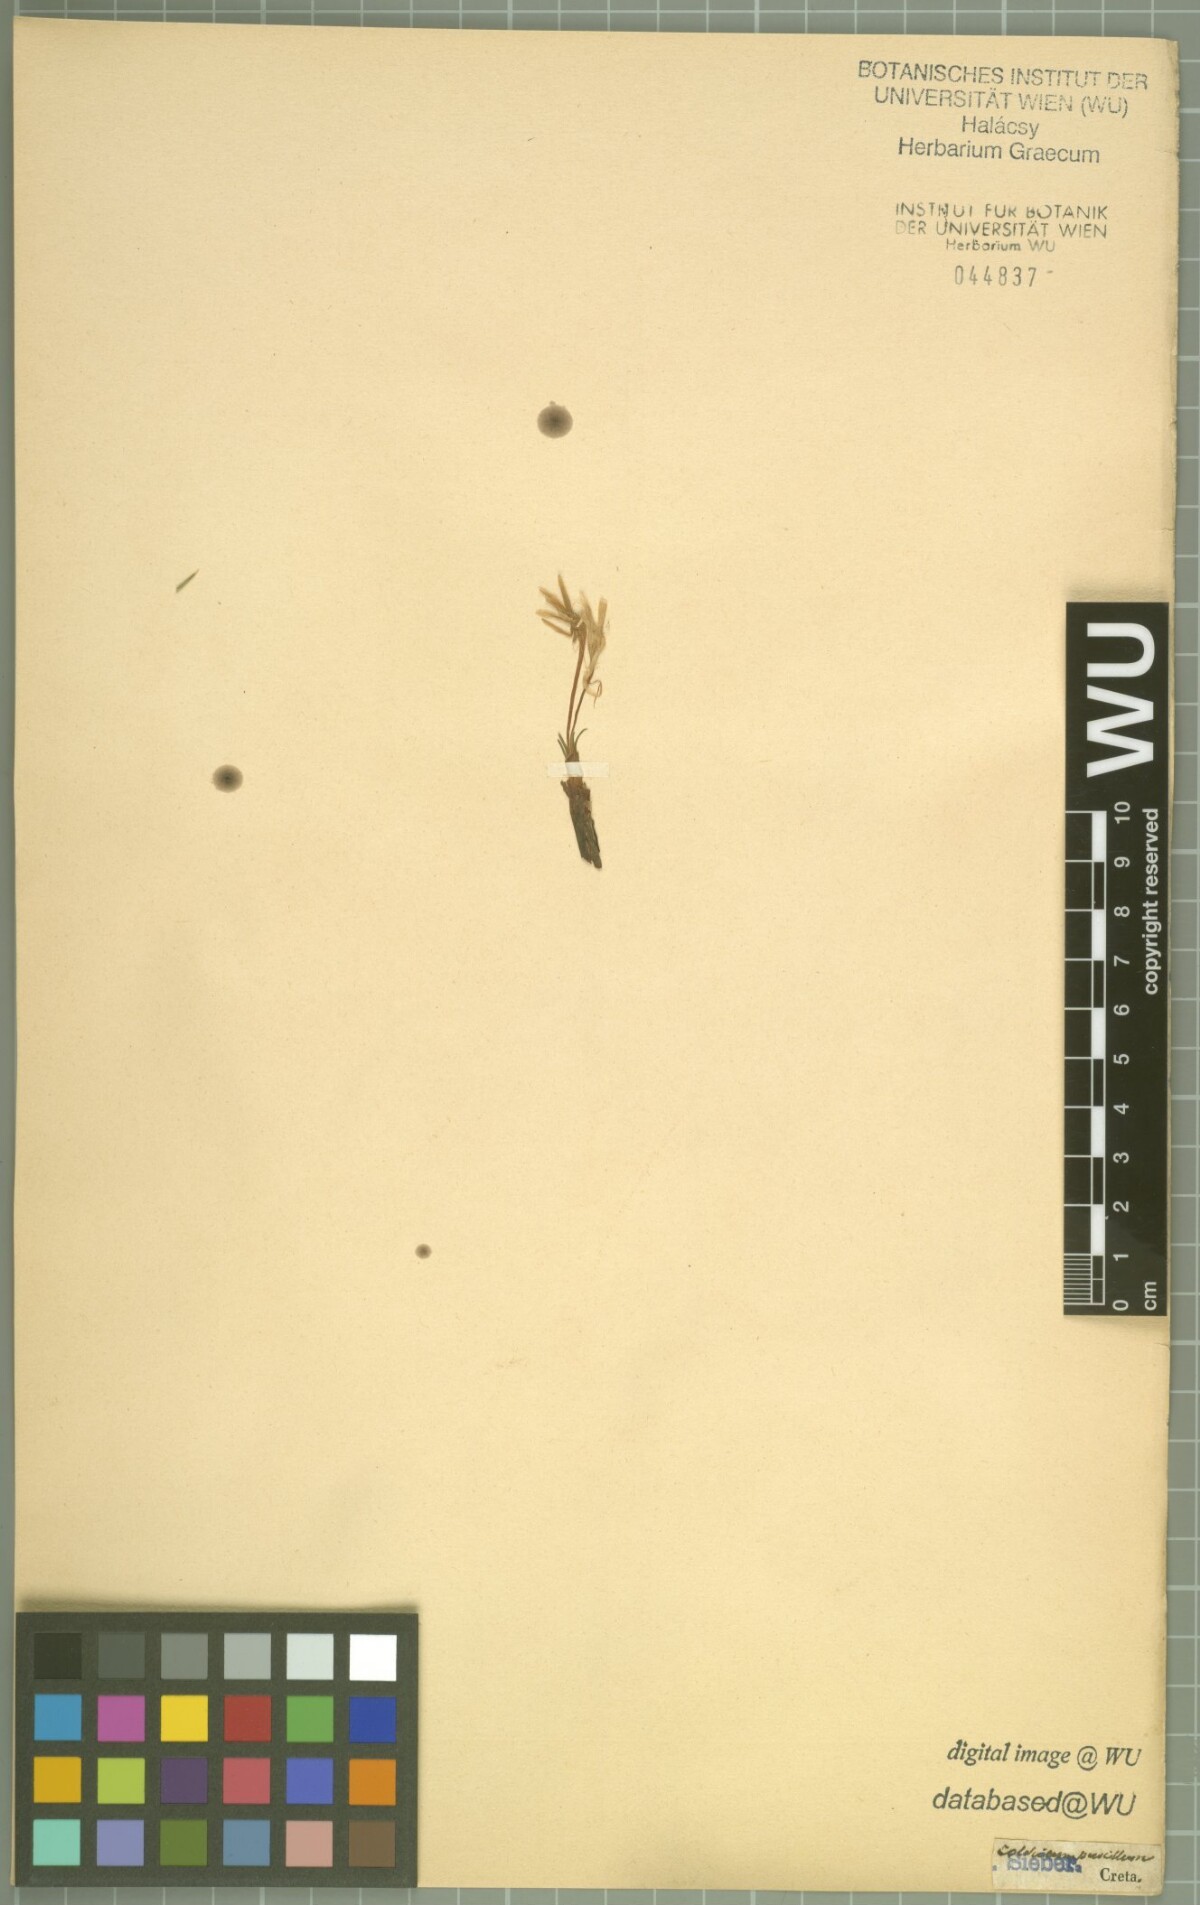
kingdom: Plantae
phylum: Tracheophyta
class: Liliopsida
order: Liliales
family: Colchicaceae
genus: Colchicum
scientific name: Colchicum pusillum
